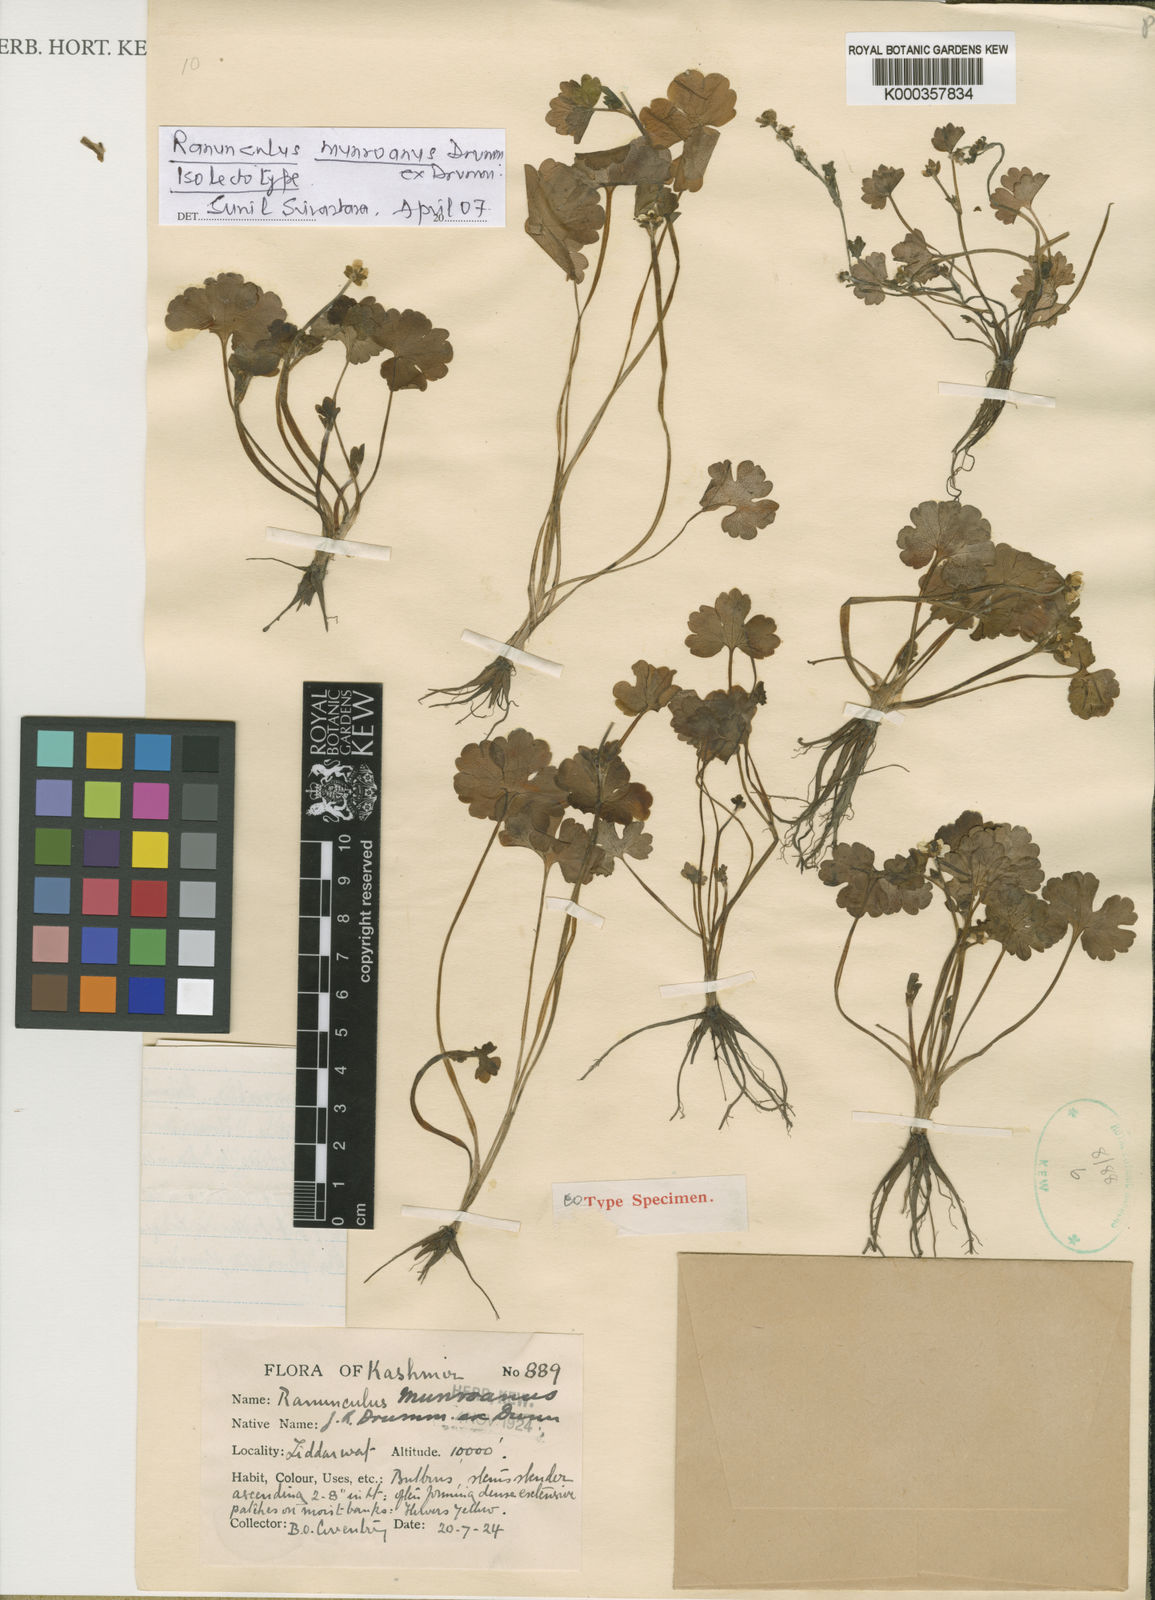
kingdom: Plantae
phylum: Tracheophyta
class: Magnoliopsida
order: Ranunculales
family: Ranunculaceae
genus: Ranunculus
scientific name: Ranunculus munroanus
